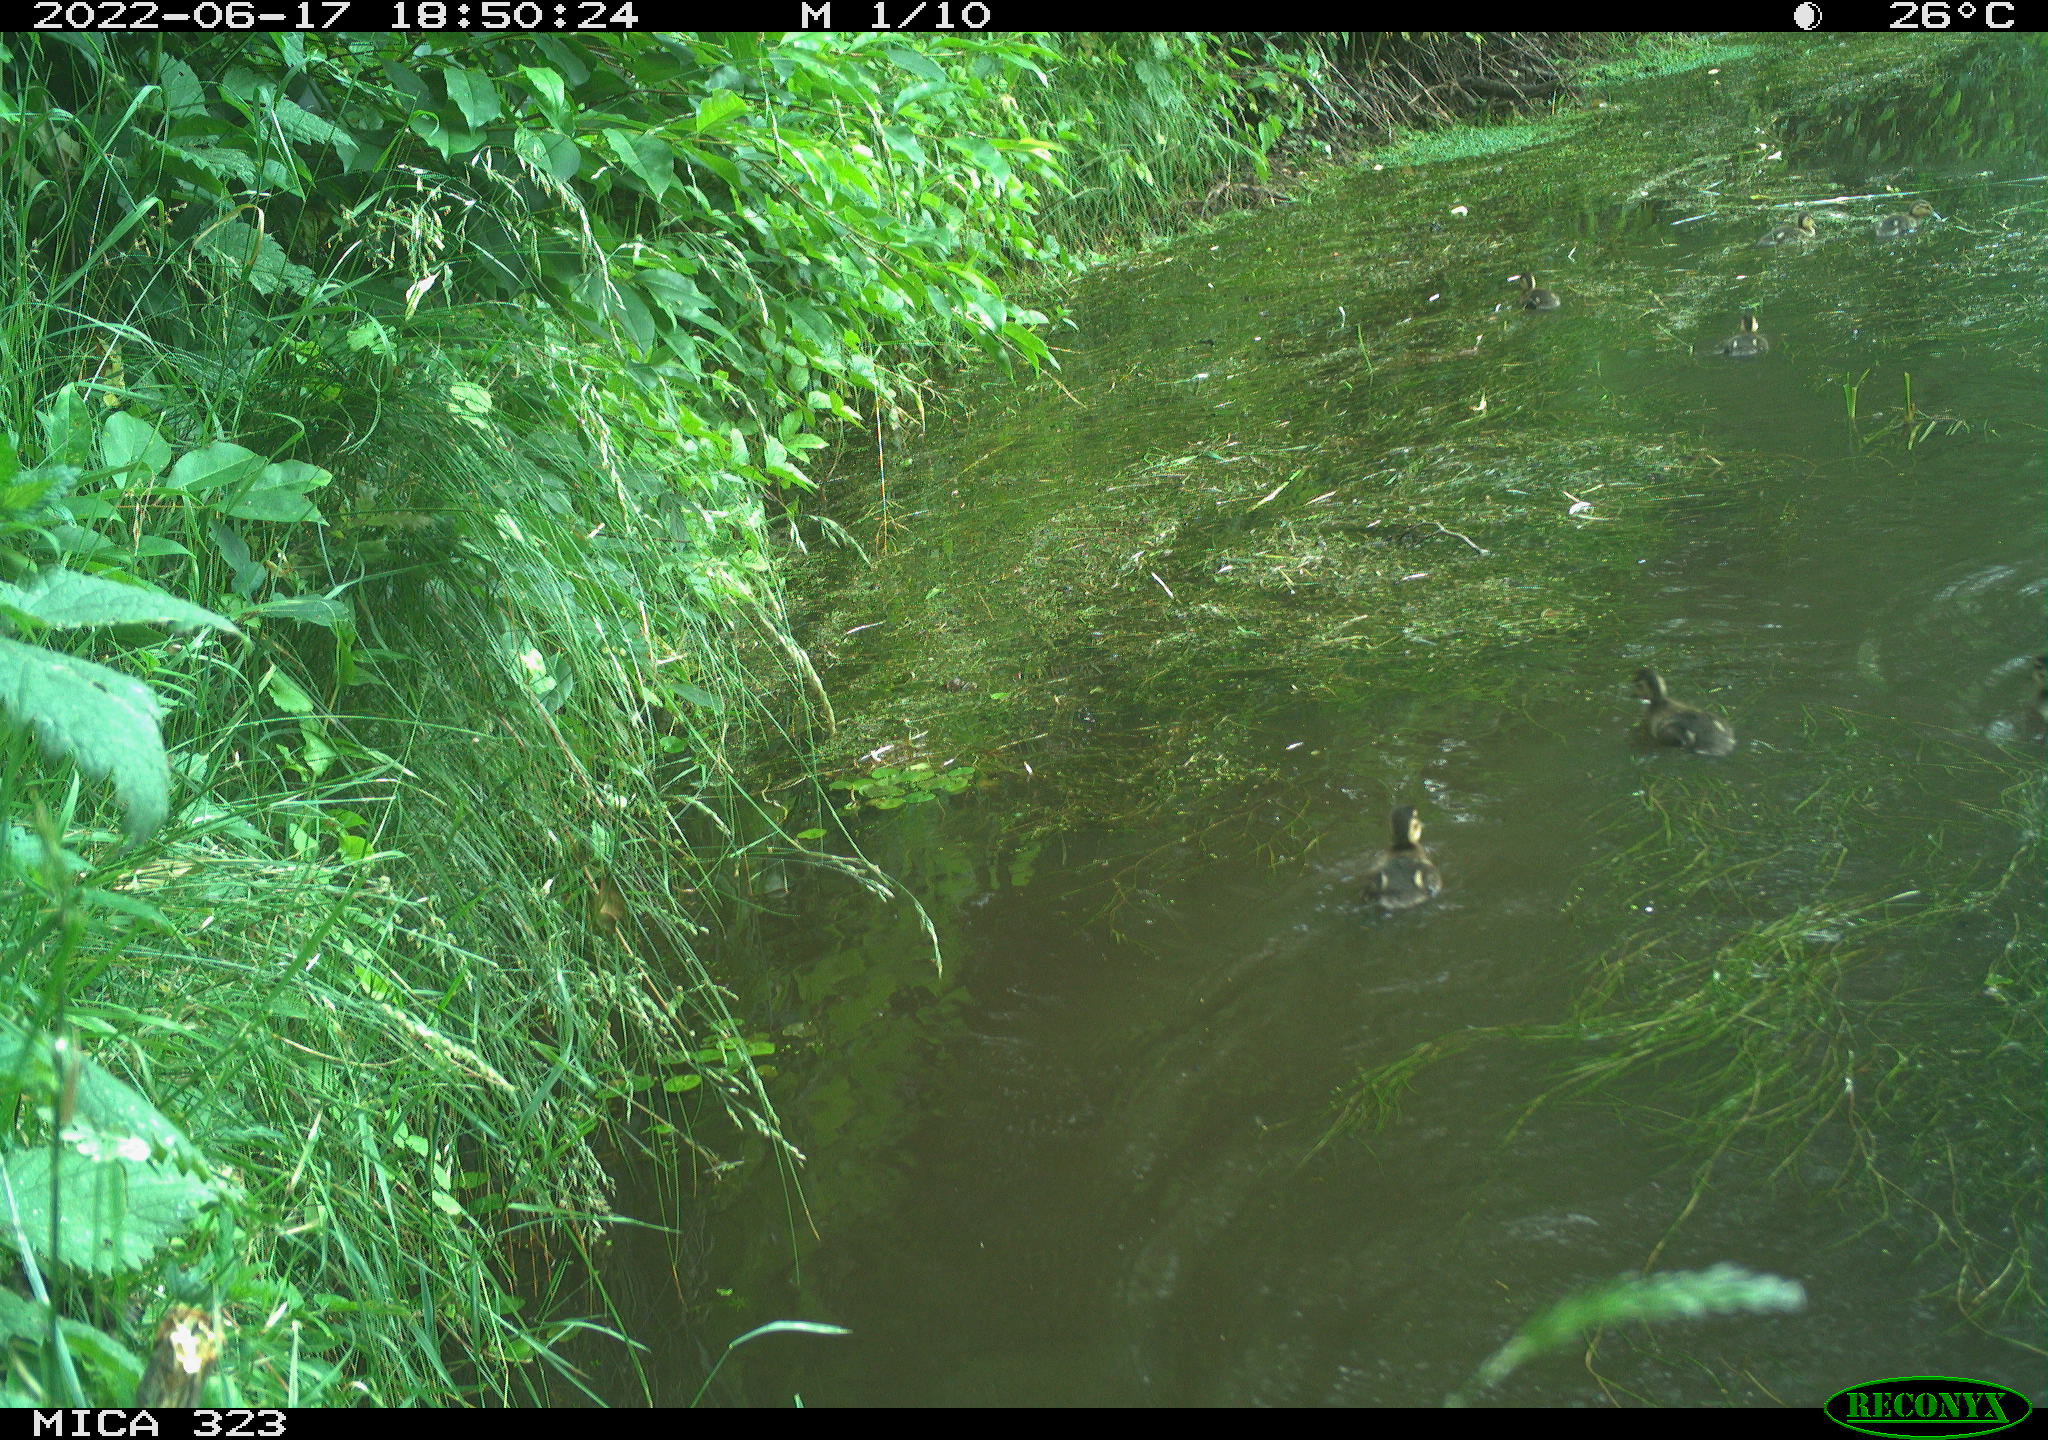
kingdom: Animalia
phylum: Chordata
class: Aves
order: Anseriformes
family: Anatidae
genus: Anas
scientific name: Anas platyrhynchos
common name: Mallard
